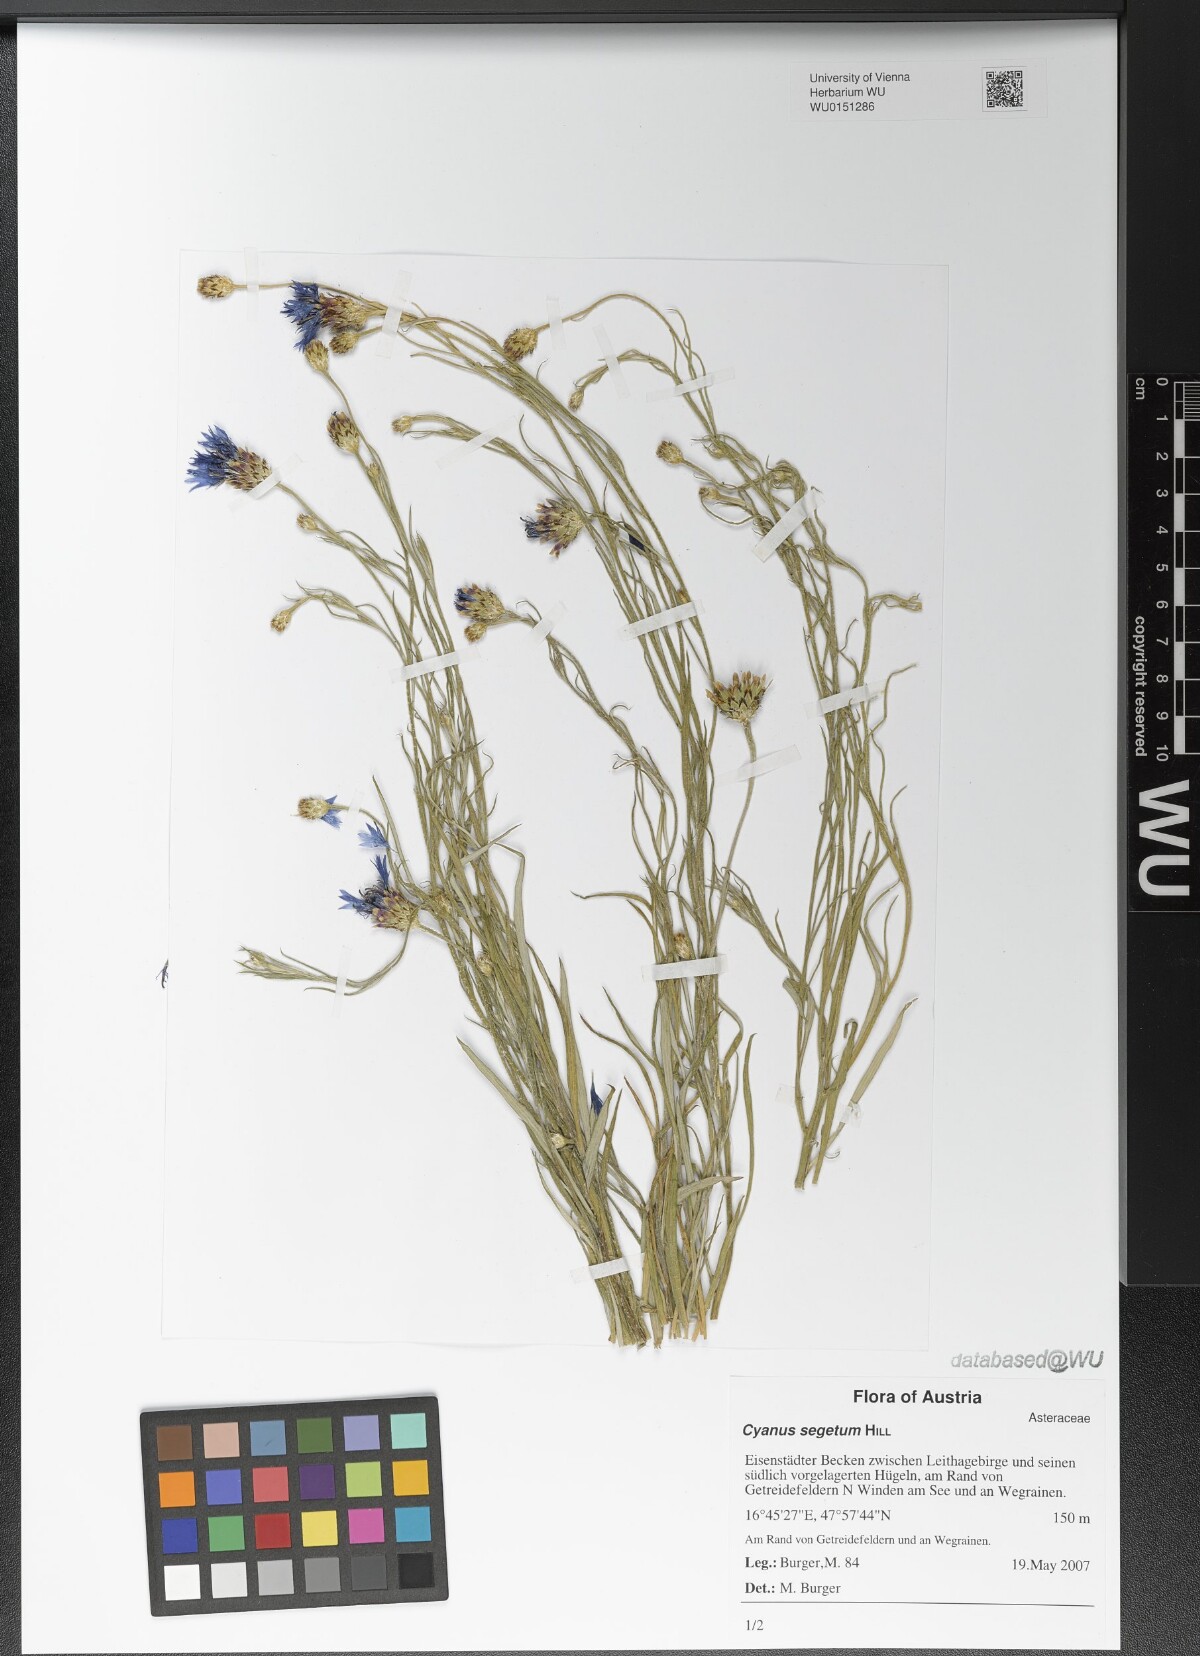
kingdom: Plantae
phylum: Tracheophyta
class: Magnoliopsida
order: Asterales
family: Asteraceae
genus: Centaurea
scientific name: Centaurea cyanus
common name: Cornflower
